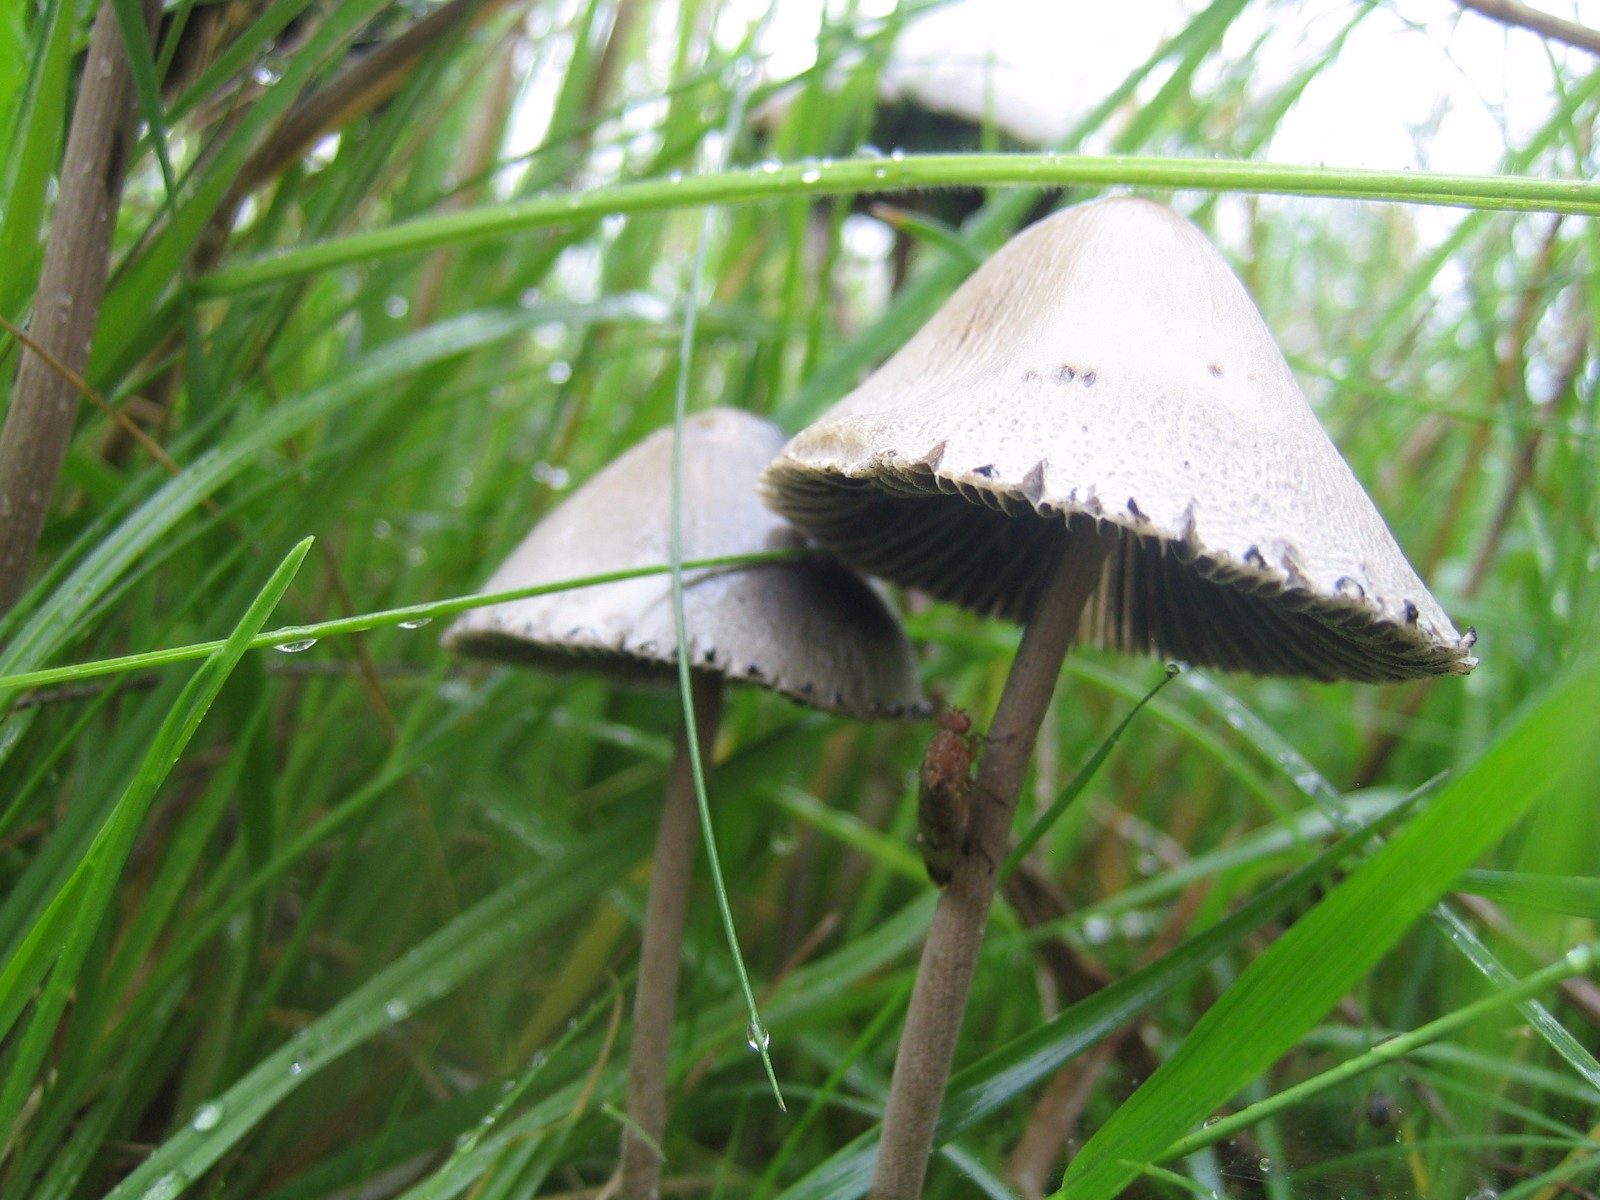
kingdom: Fungi
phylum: Basidiomycota
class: Agaricomycetes
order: Agaricales
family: Bolbitiaceae
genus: Panaeolus
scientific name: Panaeolus papilionaceus
